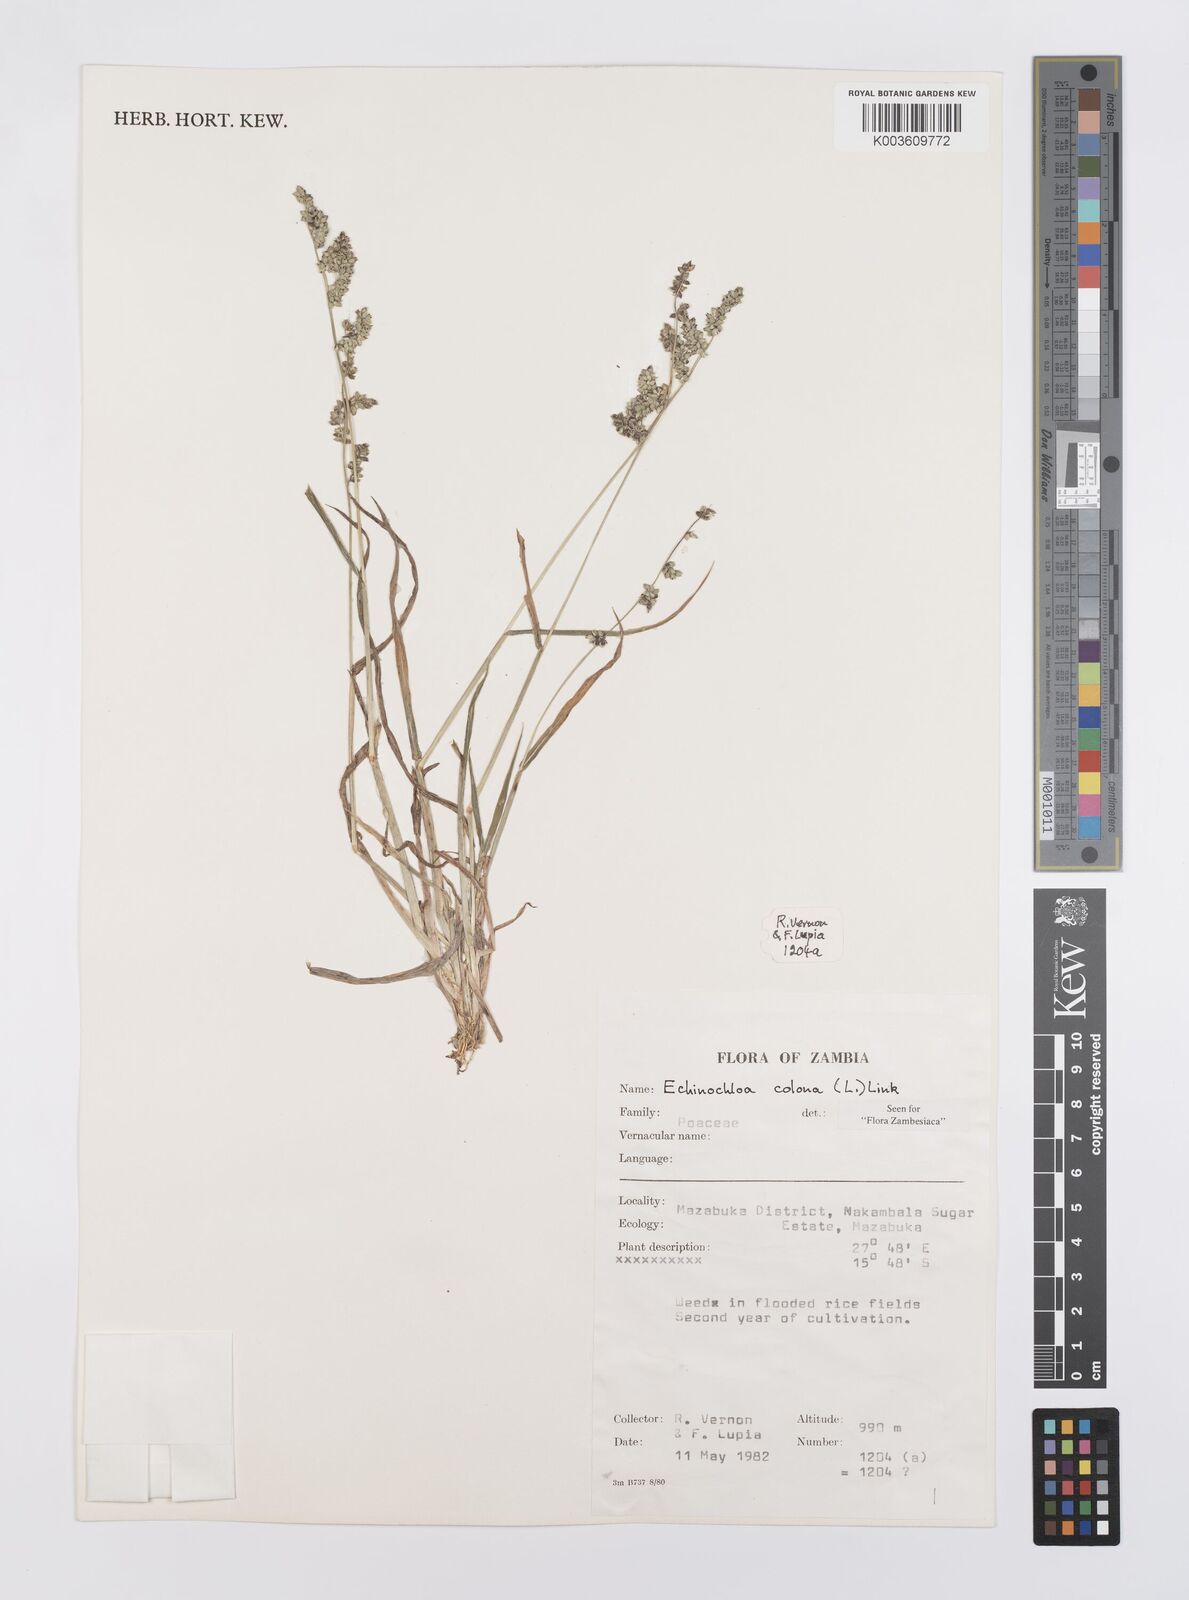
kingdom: Plantae
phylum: Tracheophyta
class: Liliopsida
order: Poales
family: Poaceae
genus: Echinochloa
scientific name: Echinochloa colonum
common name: Jungle rice
